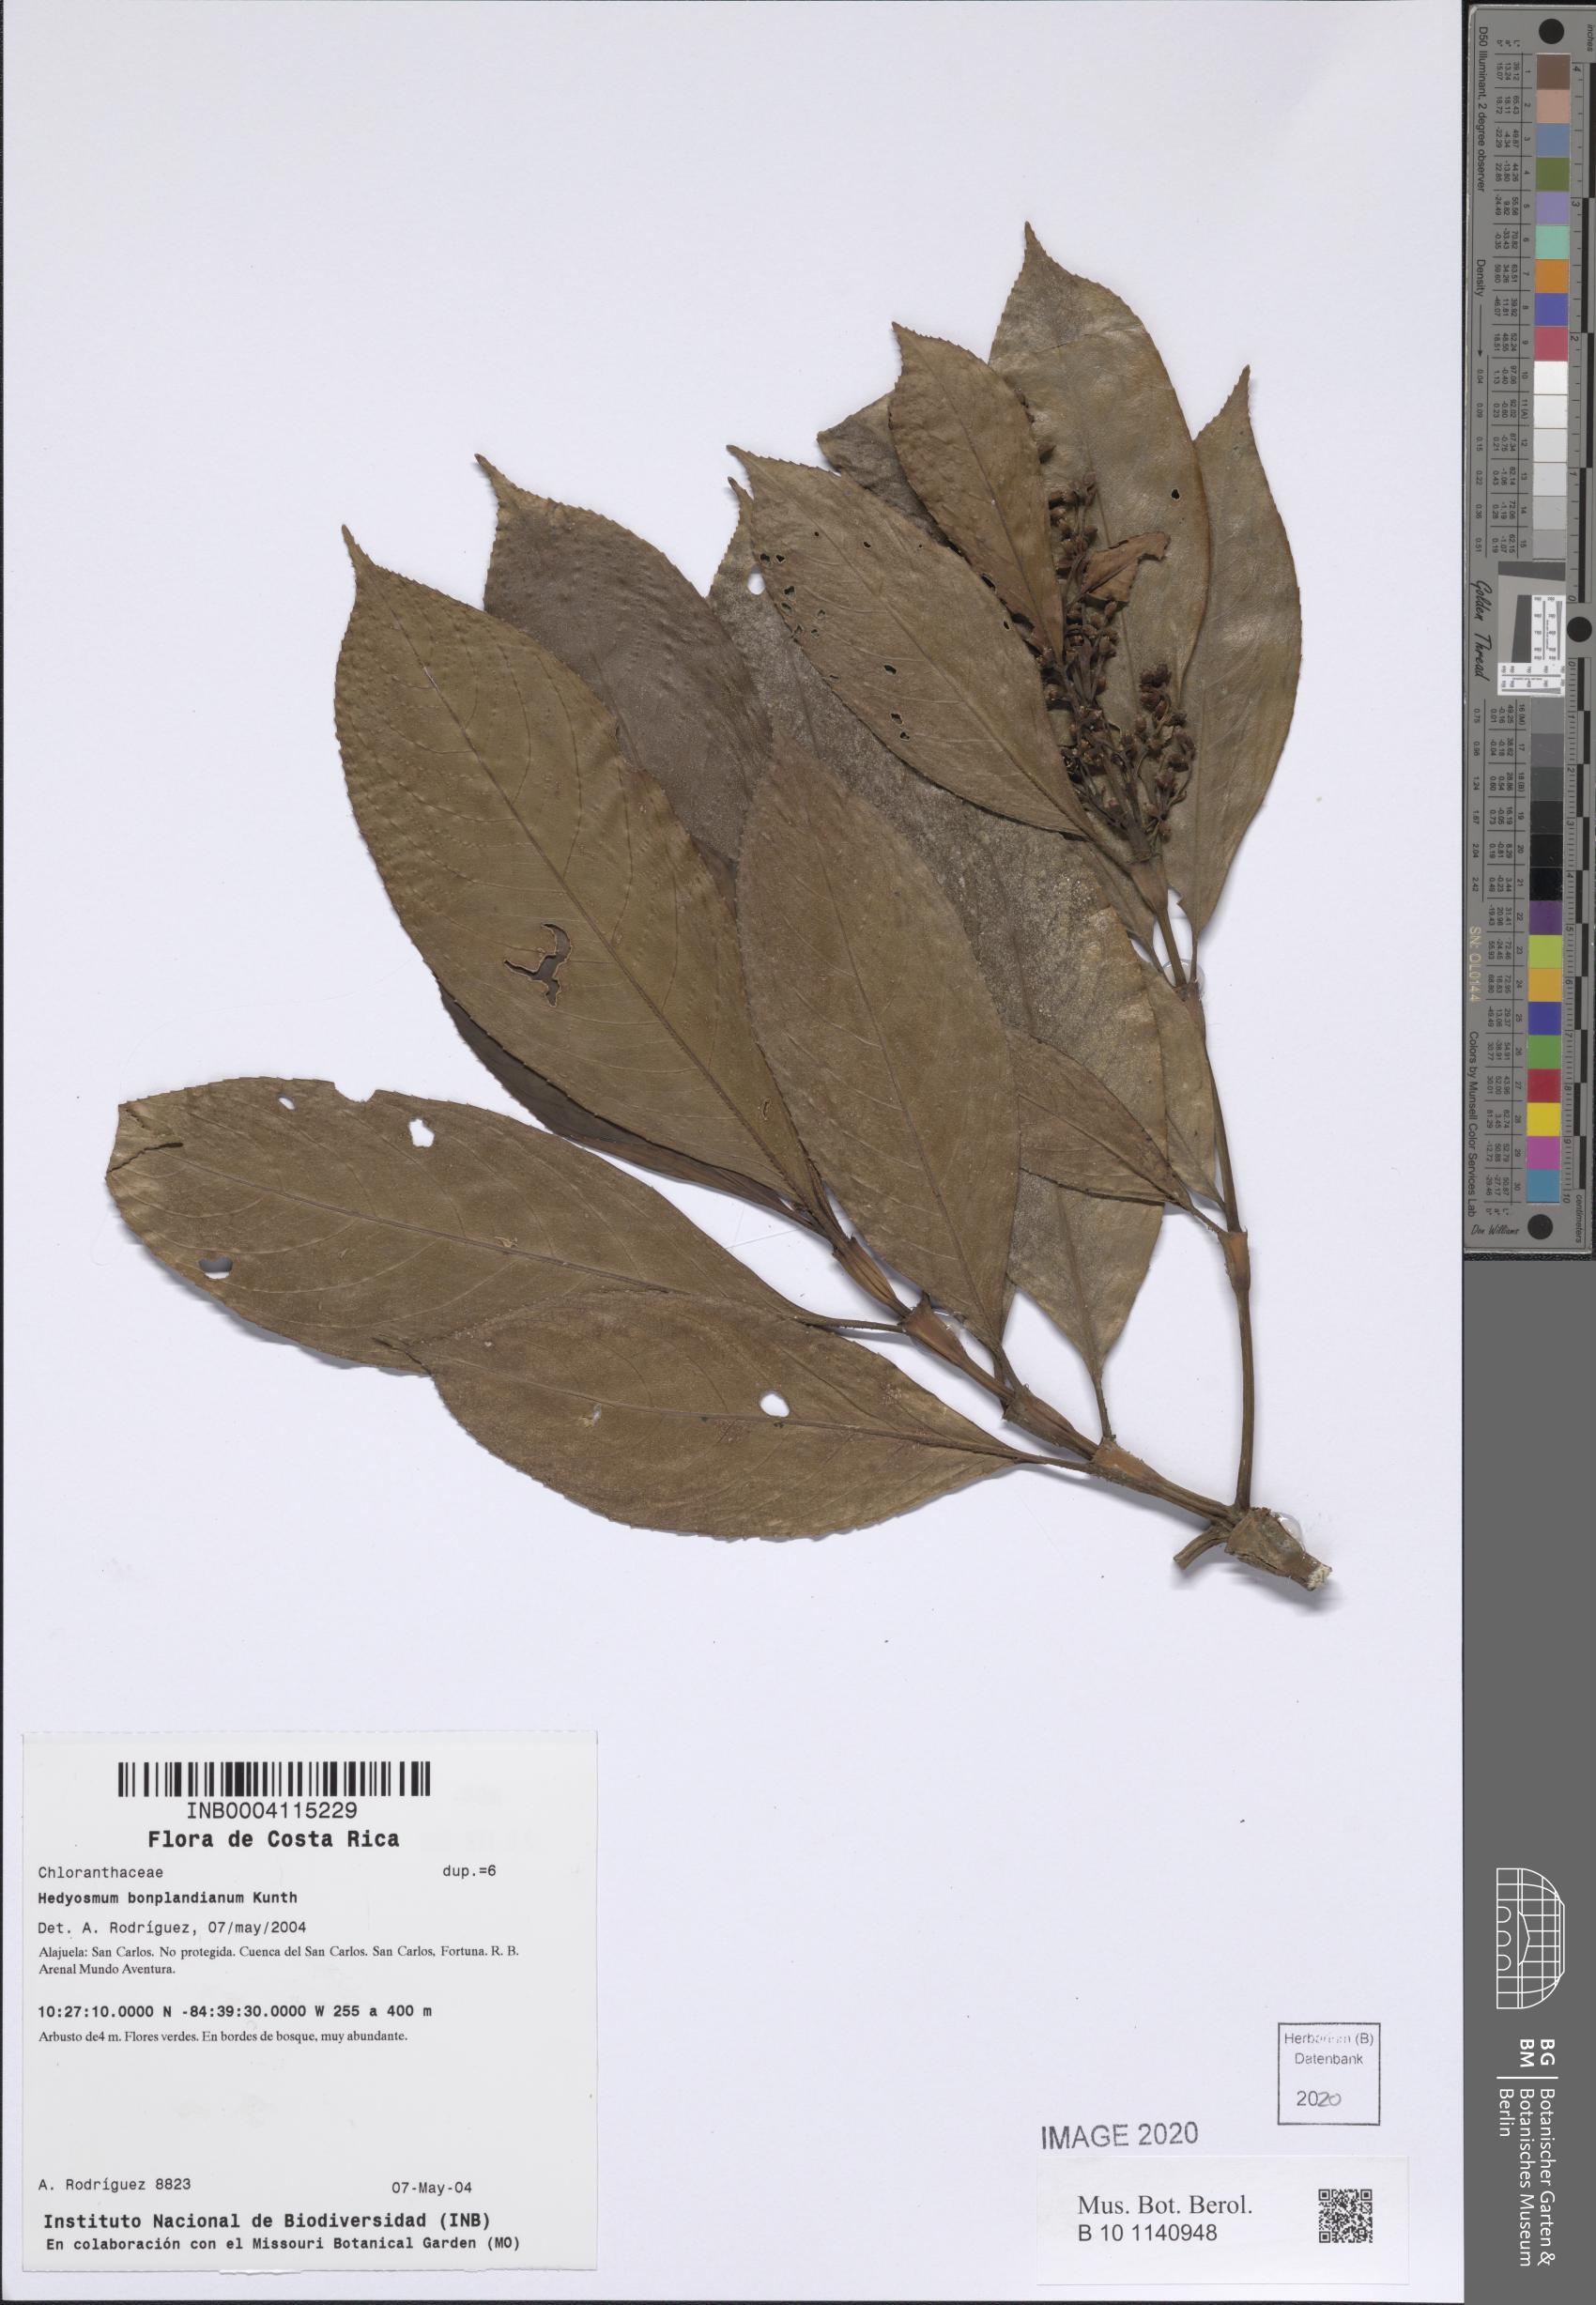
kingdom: Plantae
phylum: Tracheophyta
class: Magnoliopsida
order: Chloranthales
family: Chloranthaceae
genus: Hedyosmum
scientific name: Hedyosmum bonplandianum
